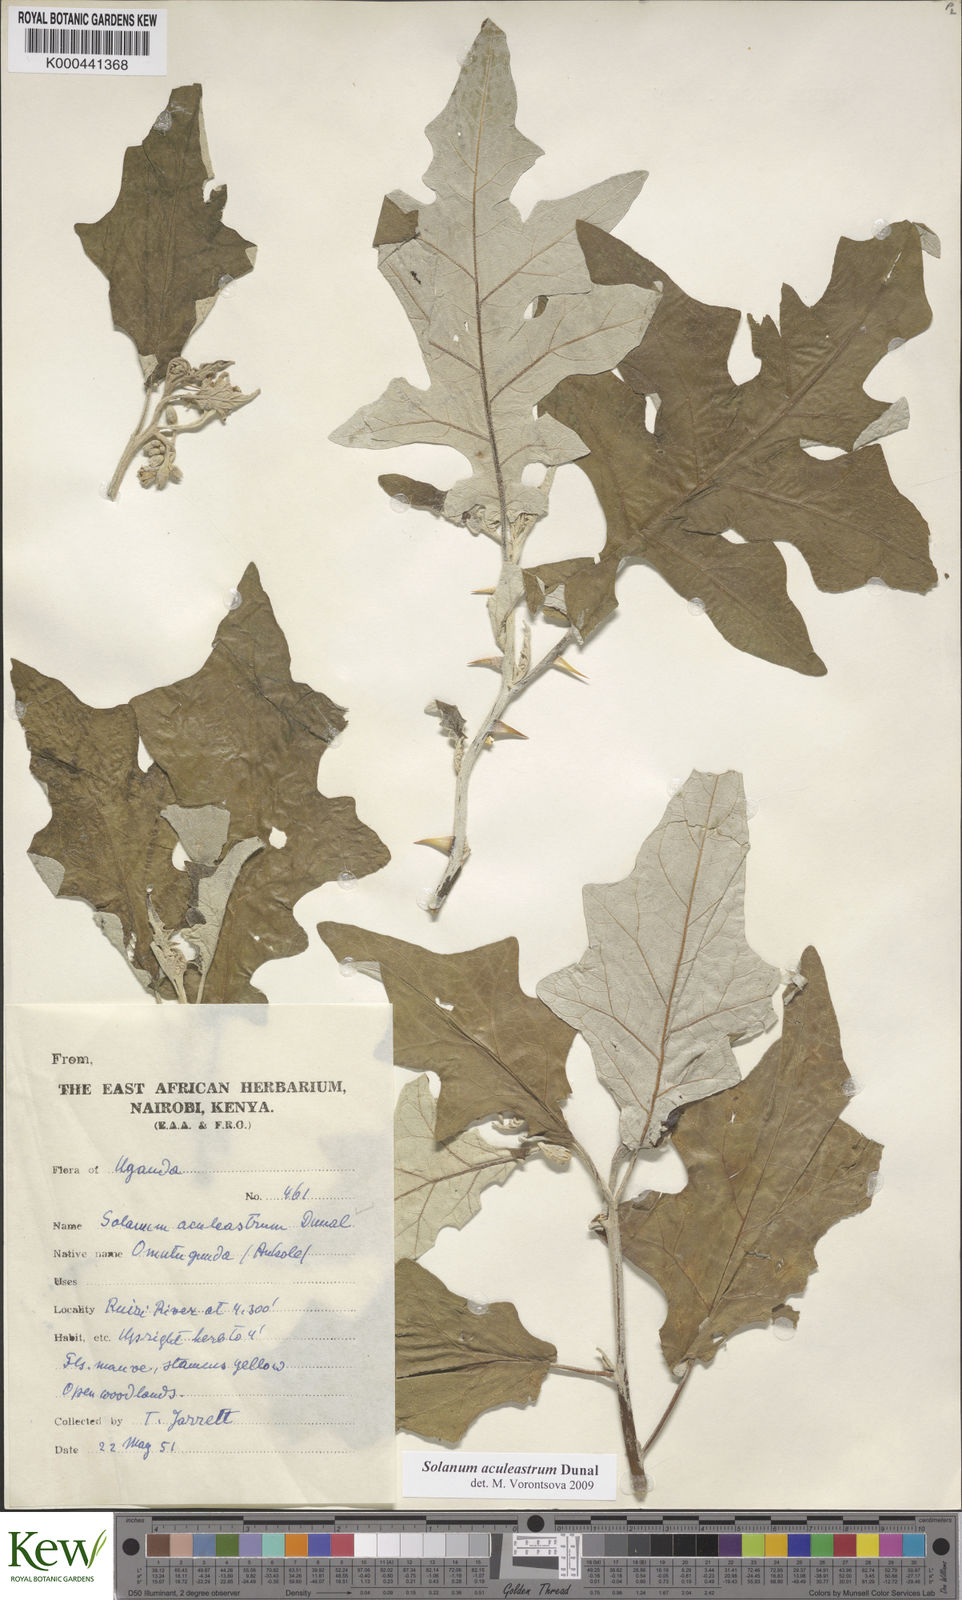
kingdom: Plantae
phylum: Tracheophyta
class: Magnoliopsida
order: Solanales
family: Solanaceae
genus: Solanum
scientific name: Solanum aculeastrum
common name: Goat bitter-apple
